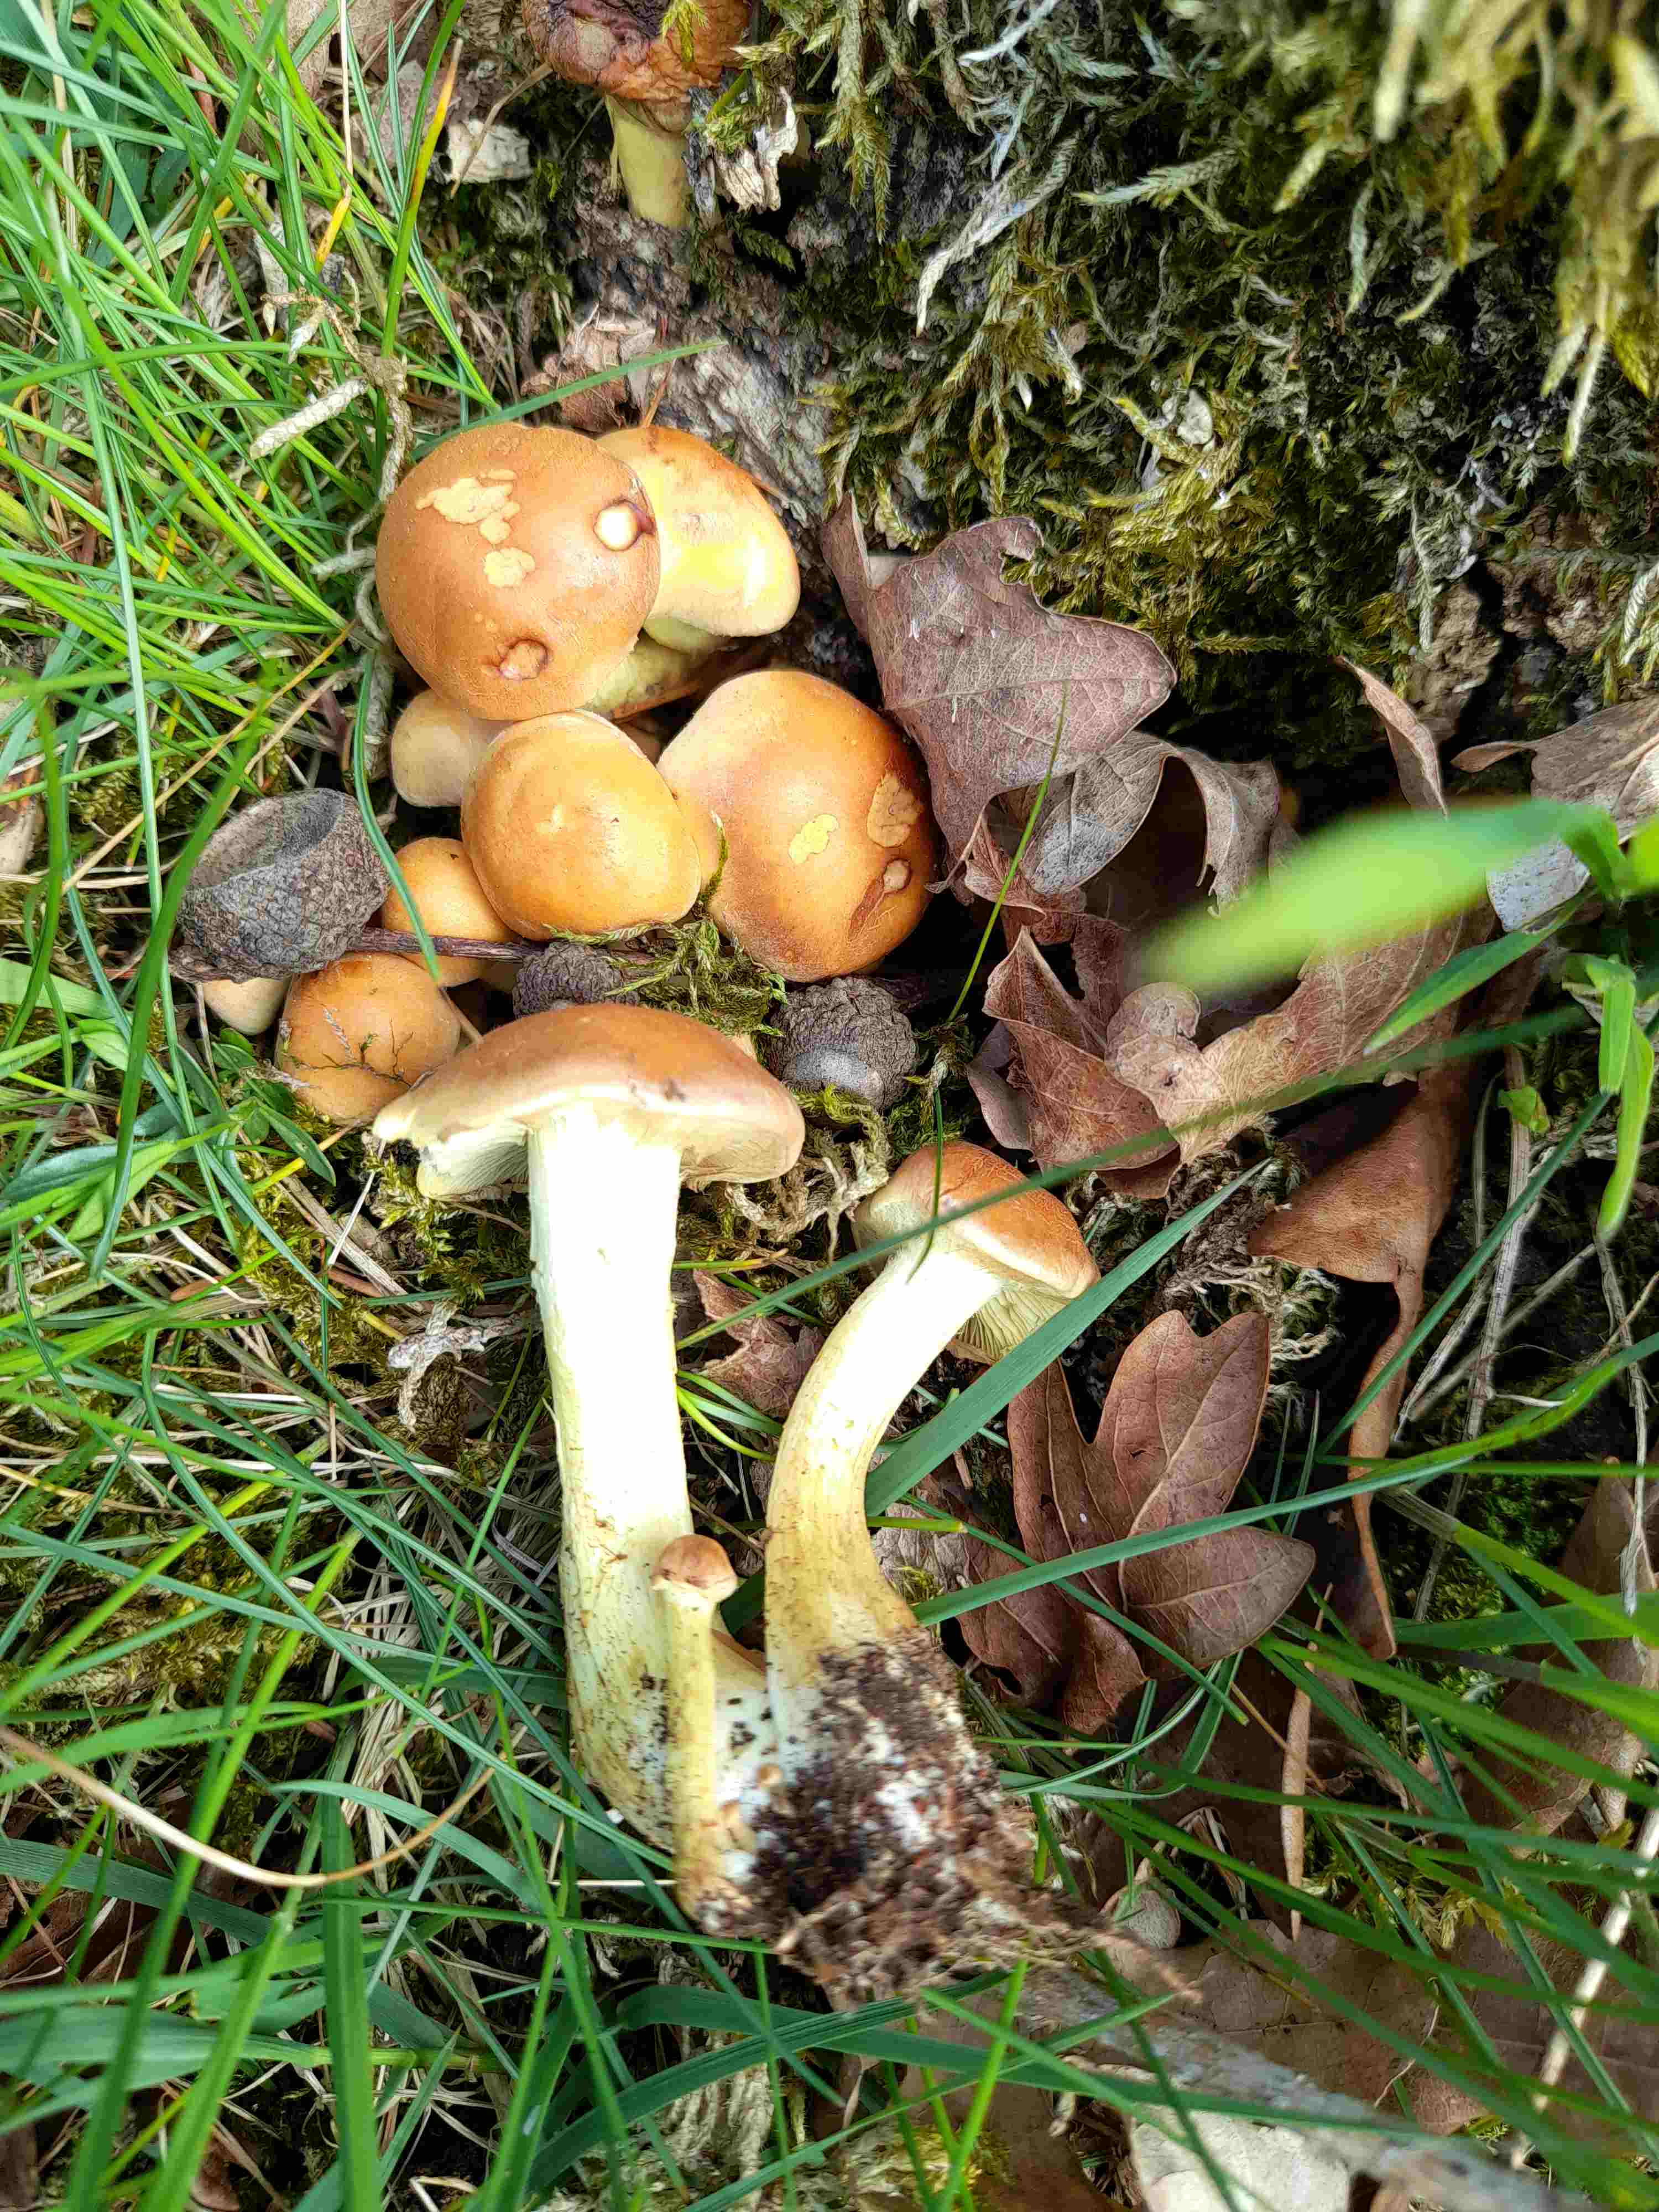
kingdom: Fungi
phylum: Basidiomycota
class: Agaricomycetes
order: Agaricales
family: Strophariaceae
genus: Hypholoma
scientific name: Hypholoma fasciculare
